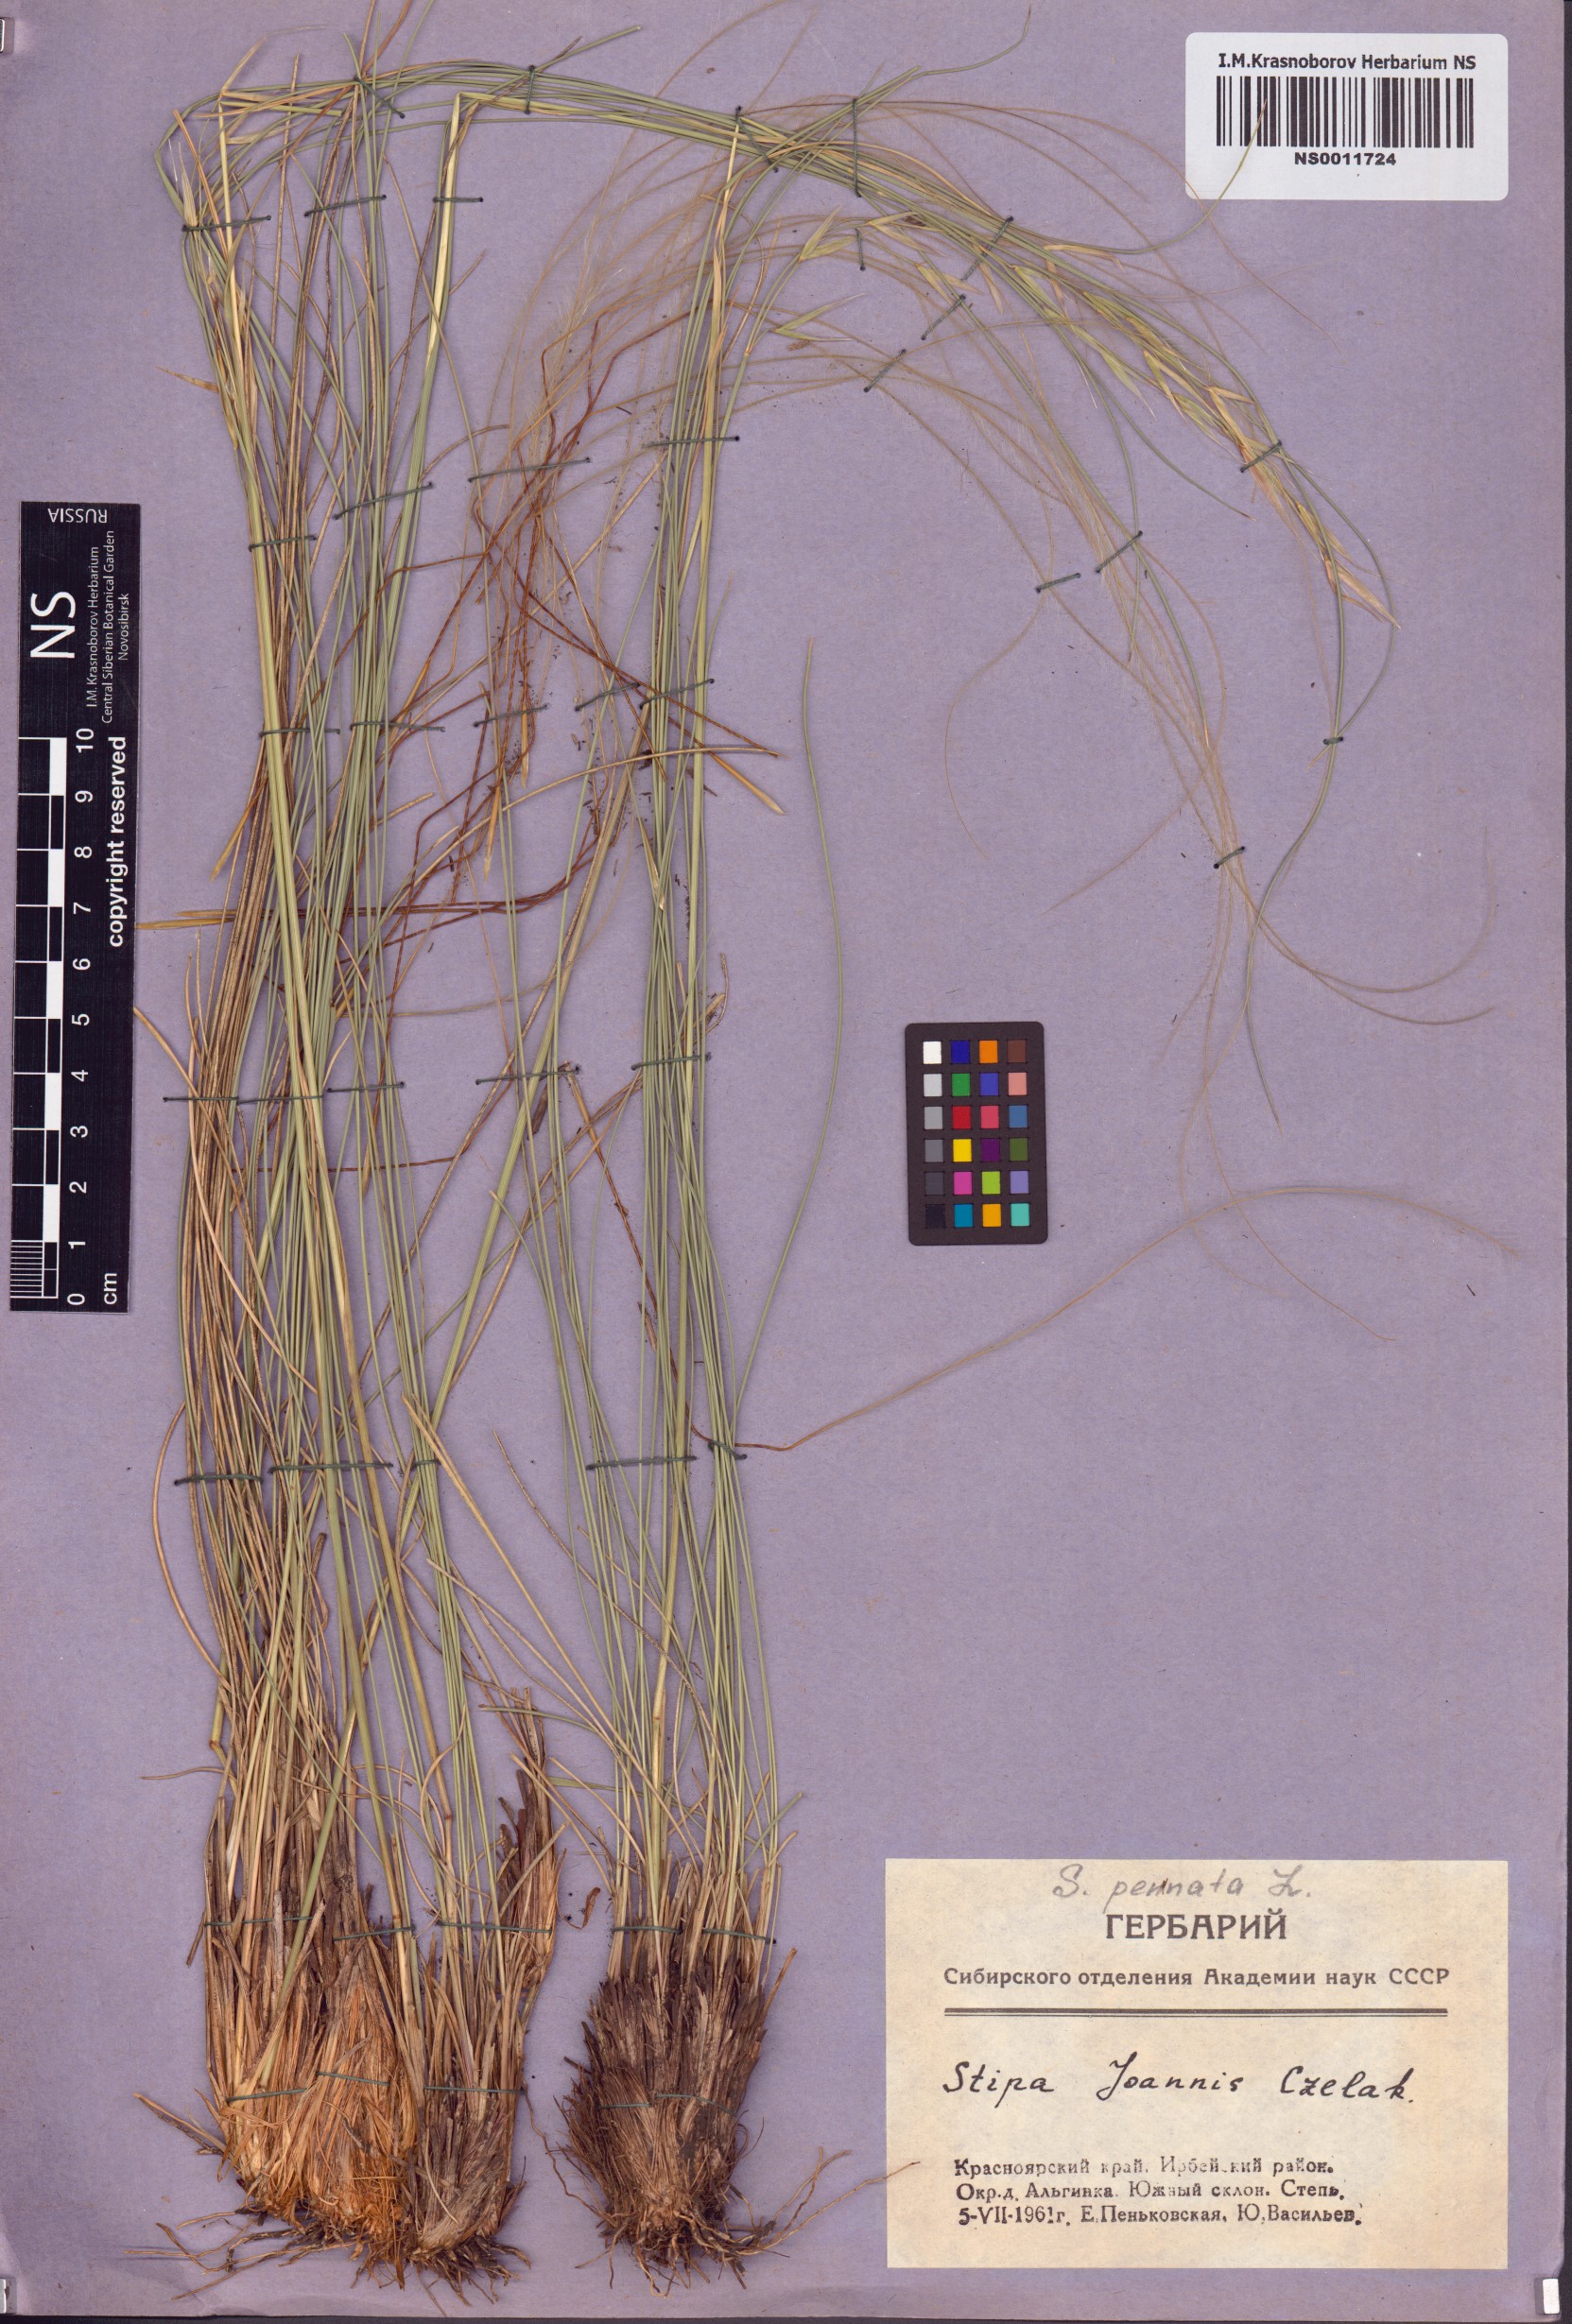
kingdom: Plantae
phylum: Tracheophyta
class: Liliopsida
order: Poales
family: Poaceae
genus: Stipa
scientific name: Stipa pennata
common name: European feather grass
